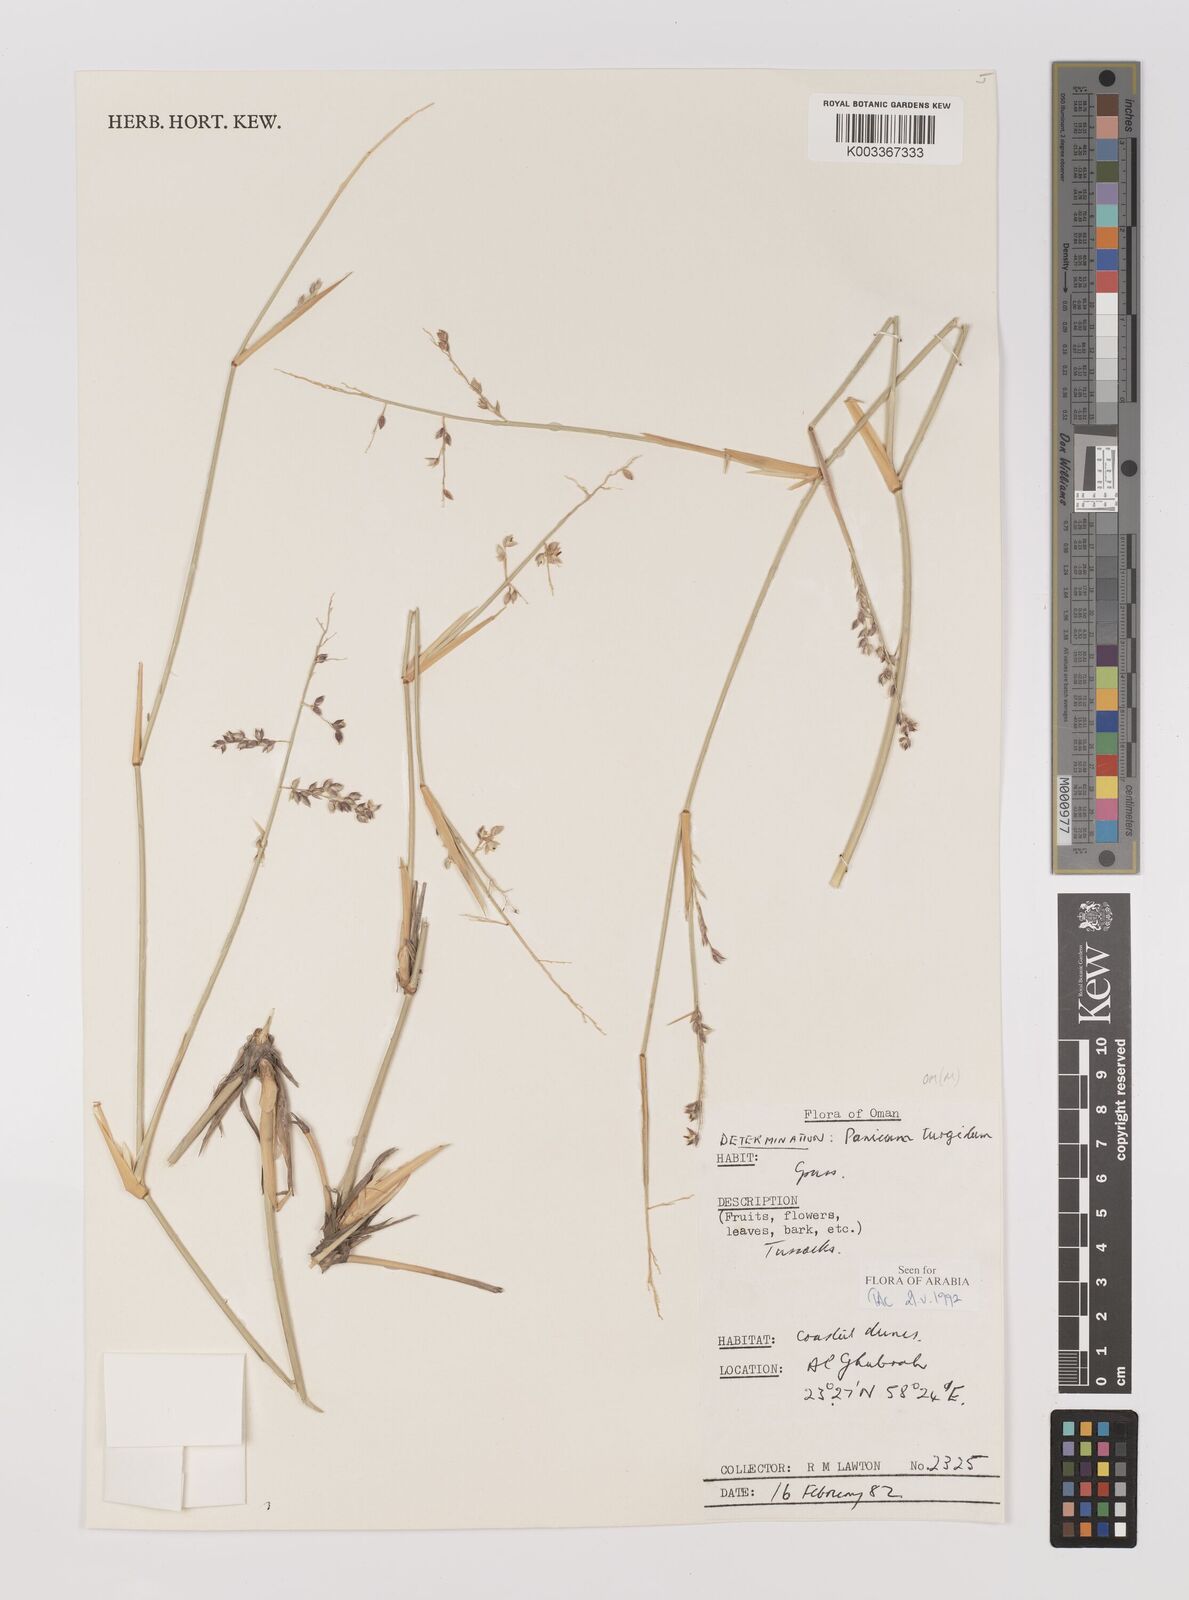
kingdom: Plantae
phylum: Tracheophyta
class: Liliopsida
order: Poales
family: Poaceae
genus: Panicum
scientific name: Panicum turgidum
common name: Desert grass
